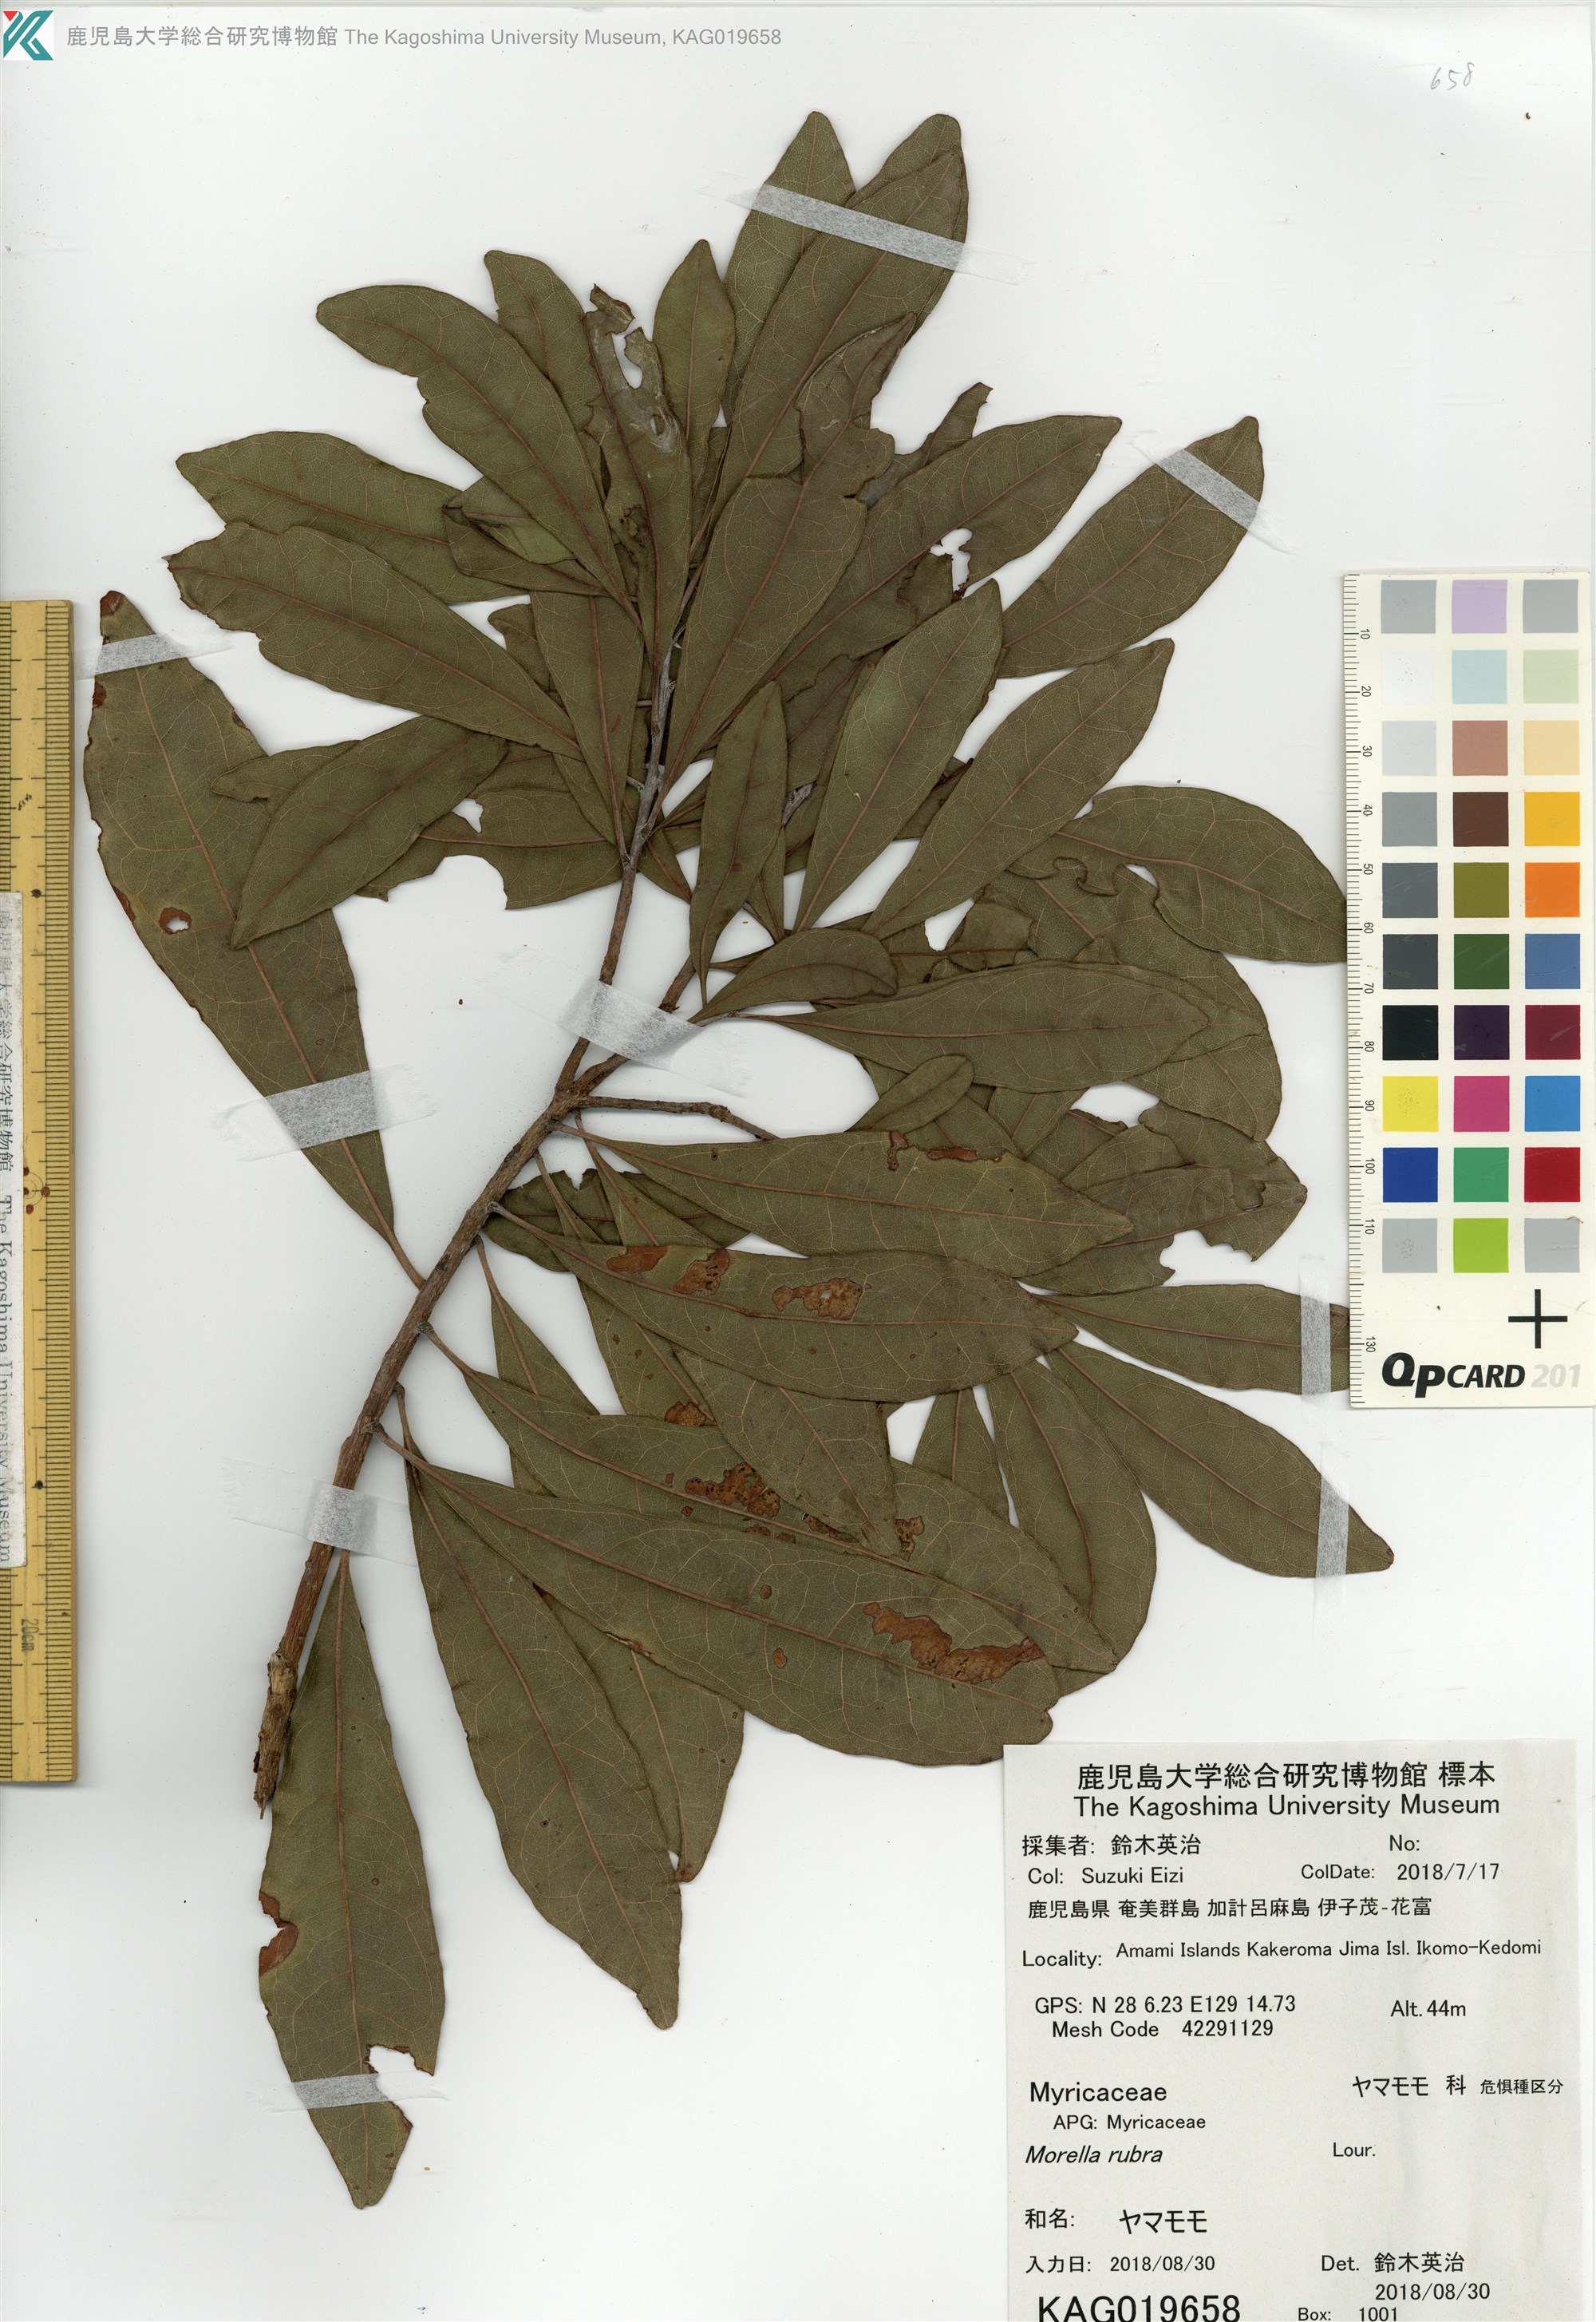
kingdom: Plantae
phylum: Tracheophyta
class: Magnoliopsida
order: Fagales
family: Myricaceae
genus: Morella
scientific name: Morella rubra
